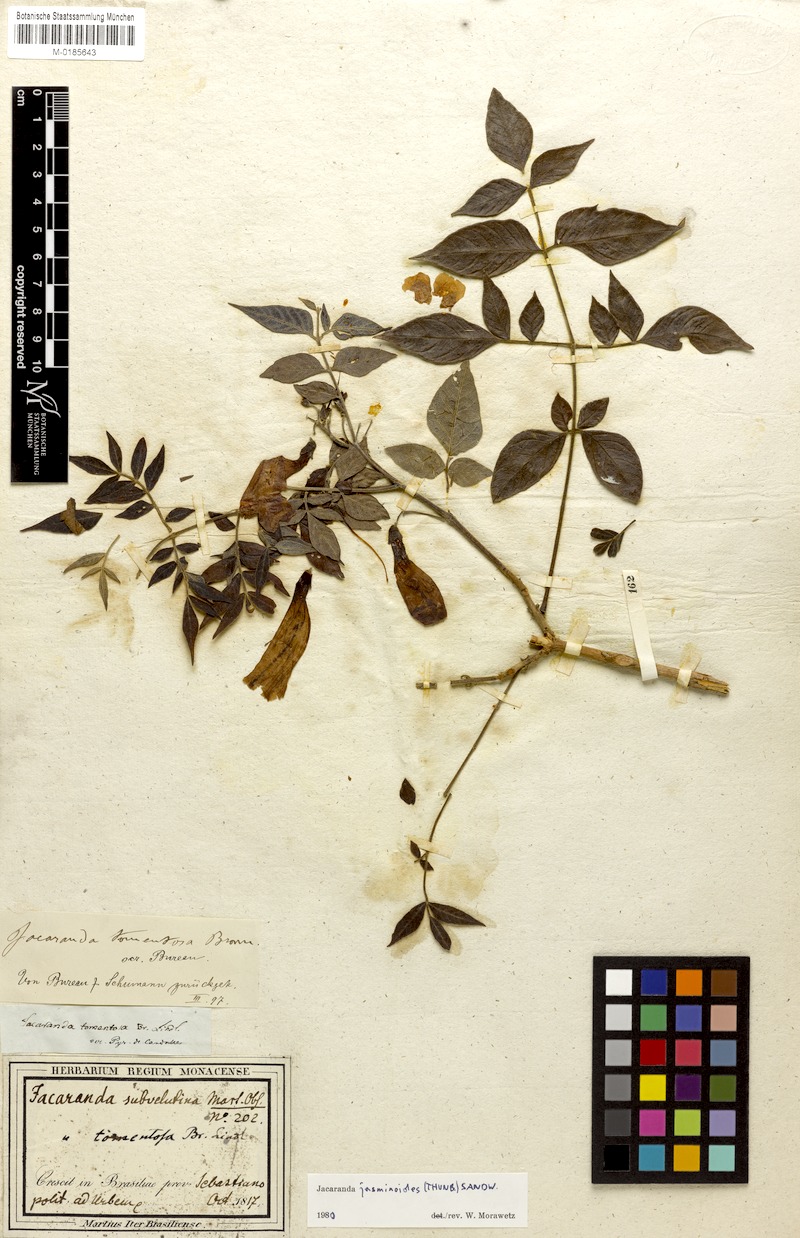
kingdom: Plantae
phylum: Tracheophyta
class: Magnoliopsida
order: Lamiales
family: Bignoniaceae
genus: Jacaranda
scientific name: Jacaranda jasminoides
